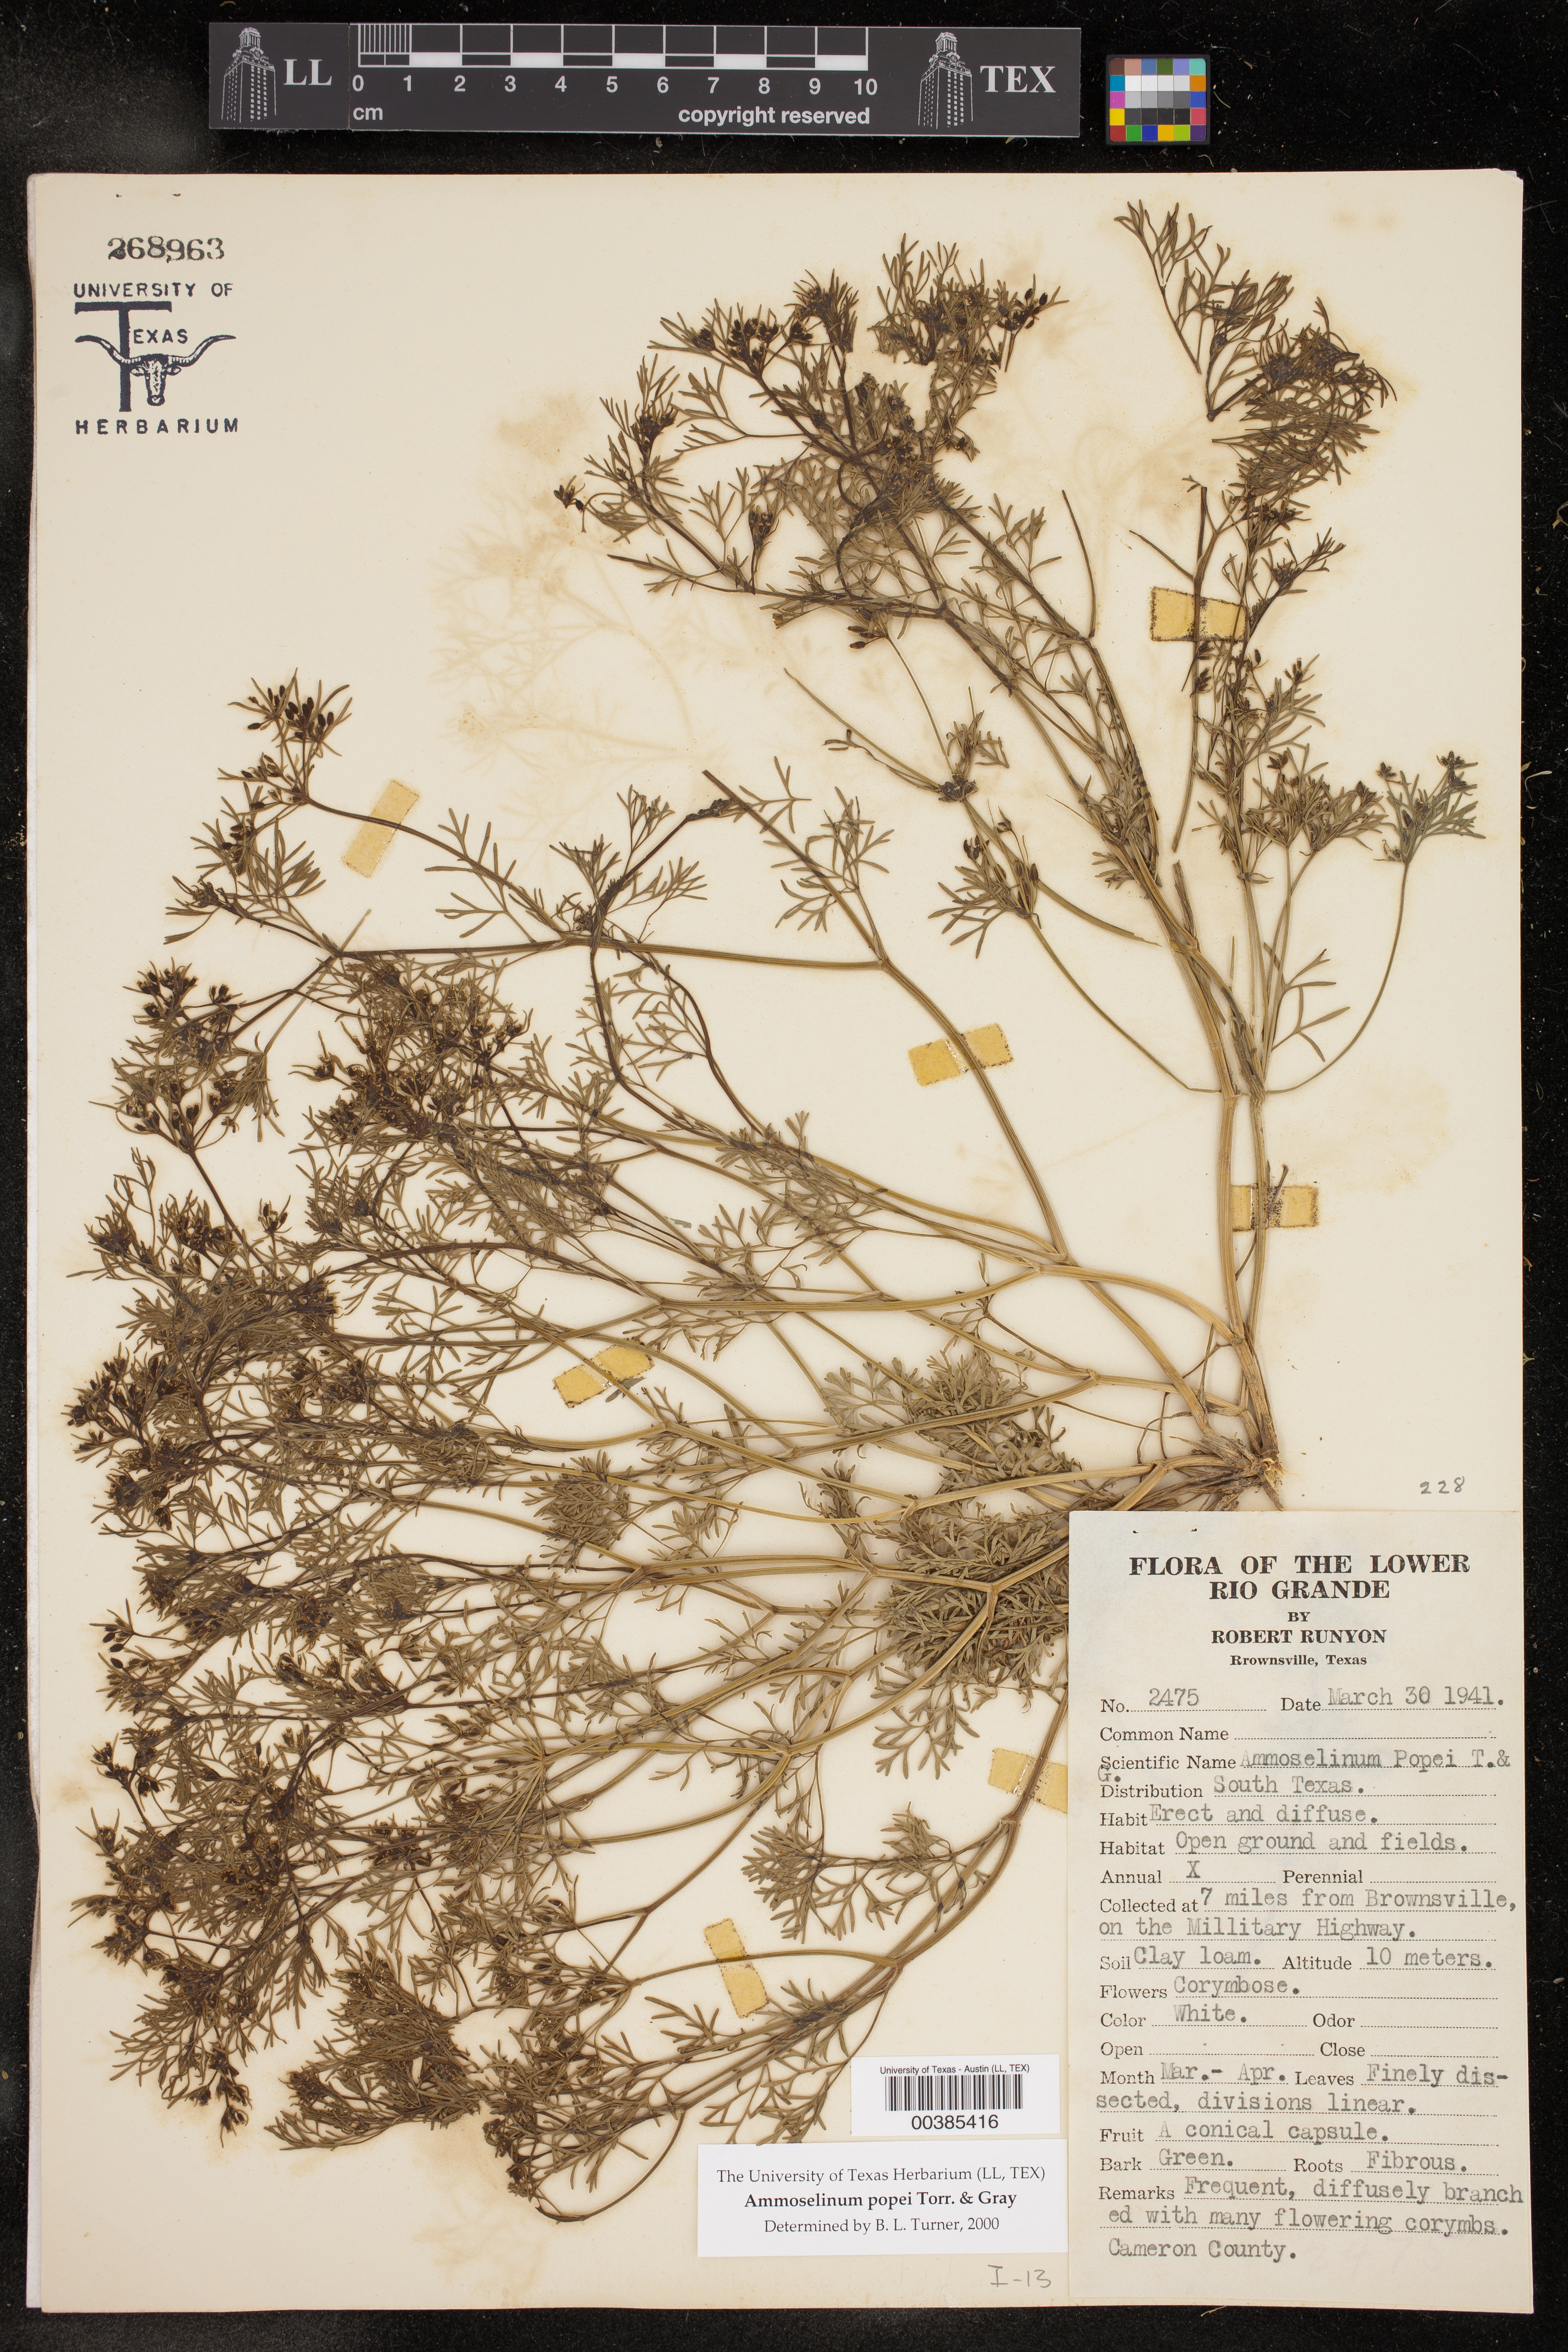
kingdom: Plantae
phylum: Tracheophyta
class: Magnoliopsida
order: Apiales
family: Apiaceae
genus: Ammoselinum
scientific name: Ammoselinum popei
